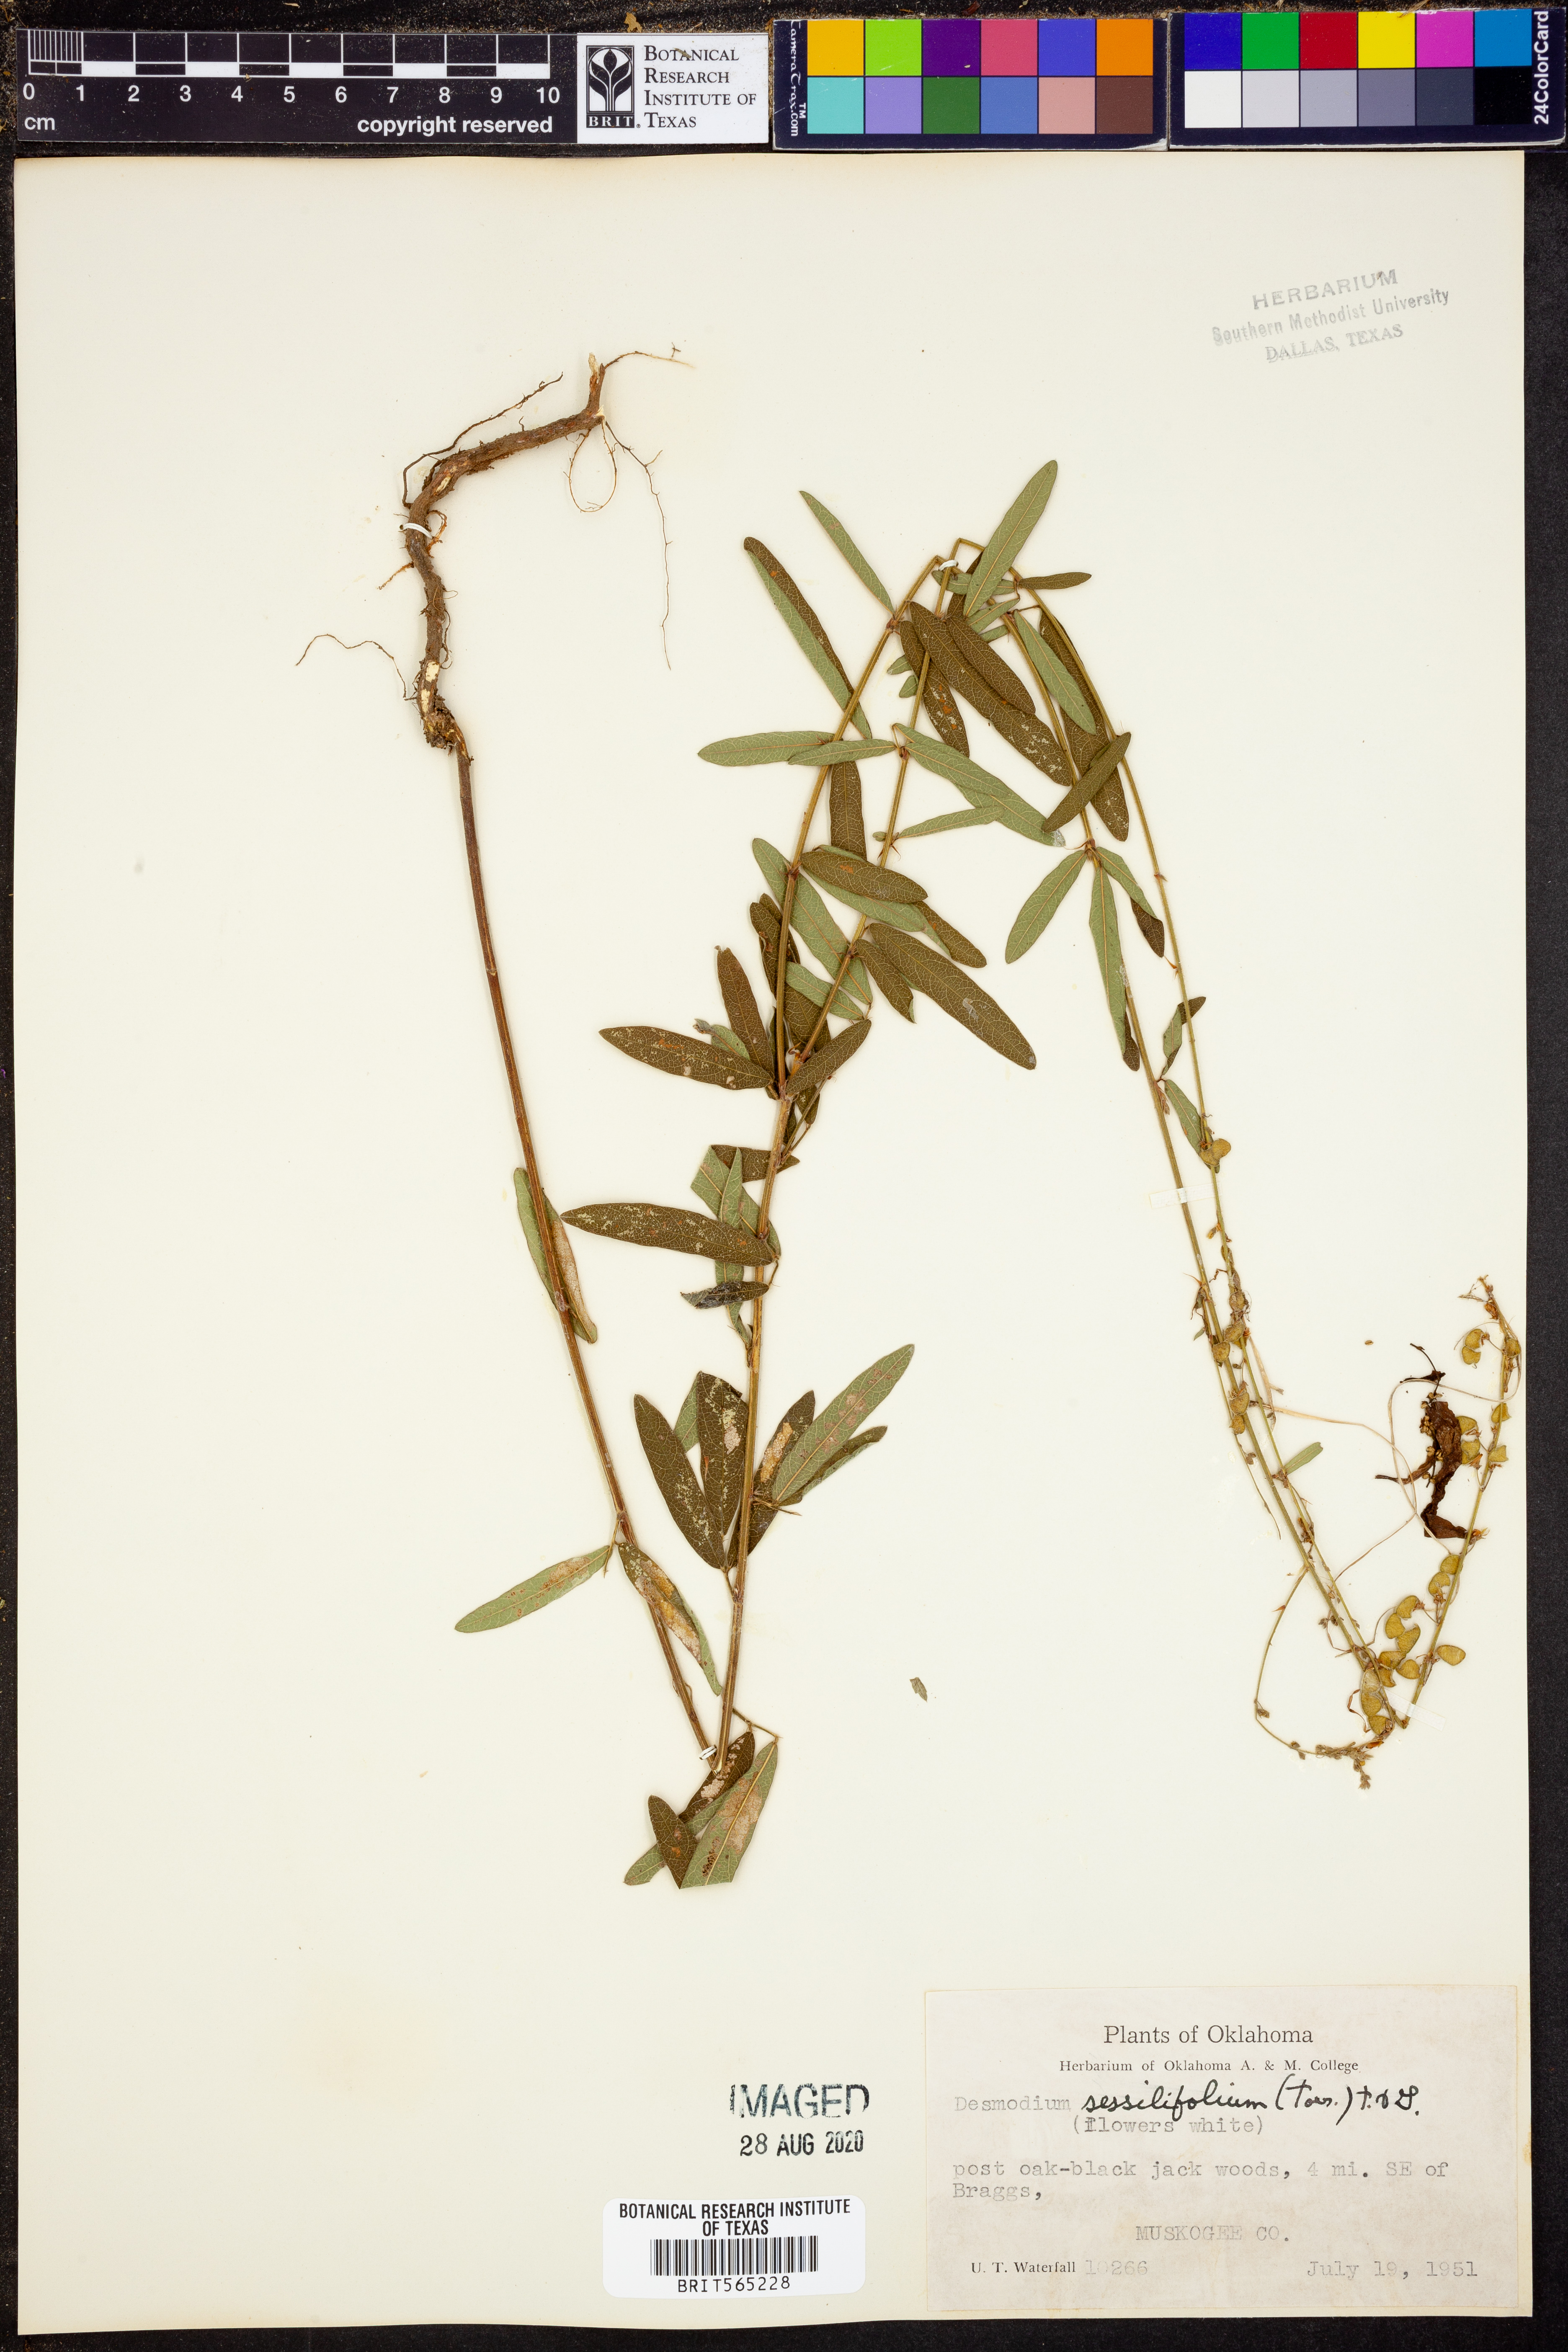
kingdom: Plantae
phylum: Tracheophyta
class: Magnoliopsida
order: Fabales
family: Fabaceae
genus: Desmodium
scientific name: Desmodium sessilifolium
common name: Sessile tick-clover
